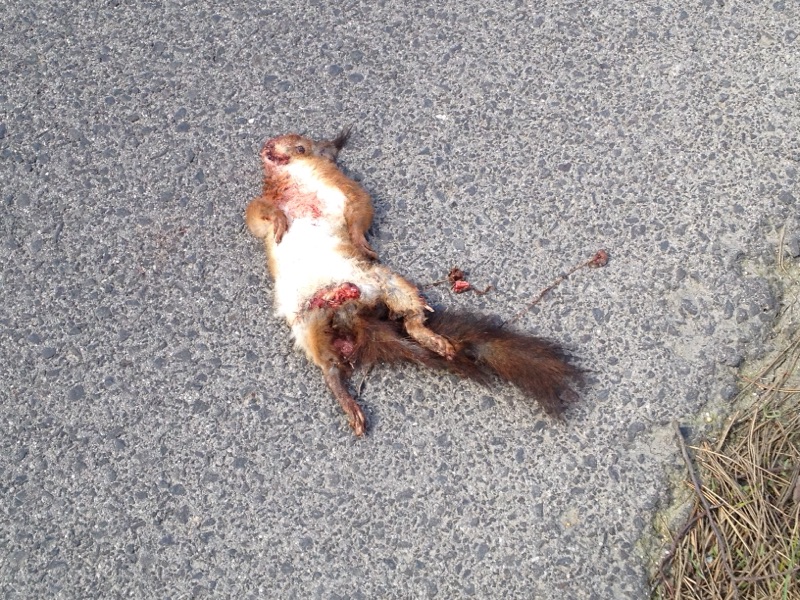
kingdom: Animalia
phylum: Chordata
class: Mammalia
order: Rodentia
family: Sciuridae
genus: Sciurus
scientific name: Sciurus vulgaris
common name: Eurasian red squirrel
